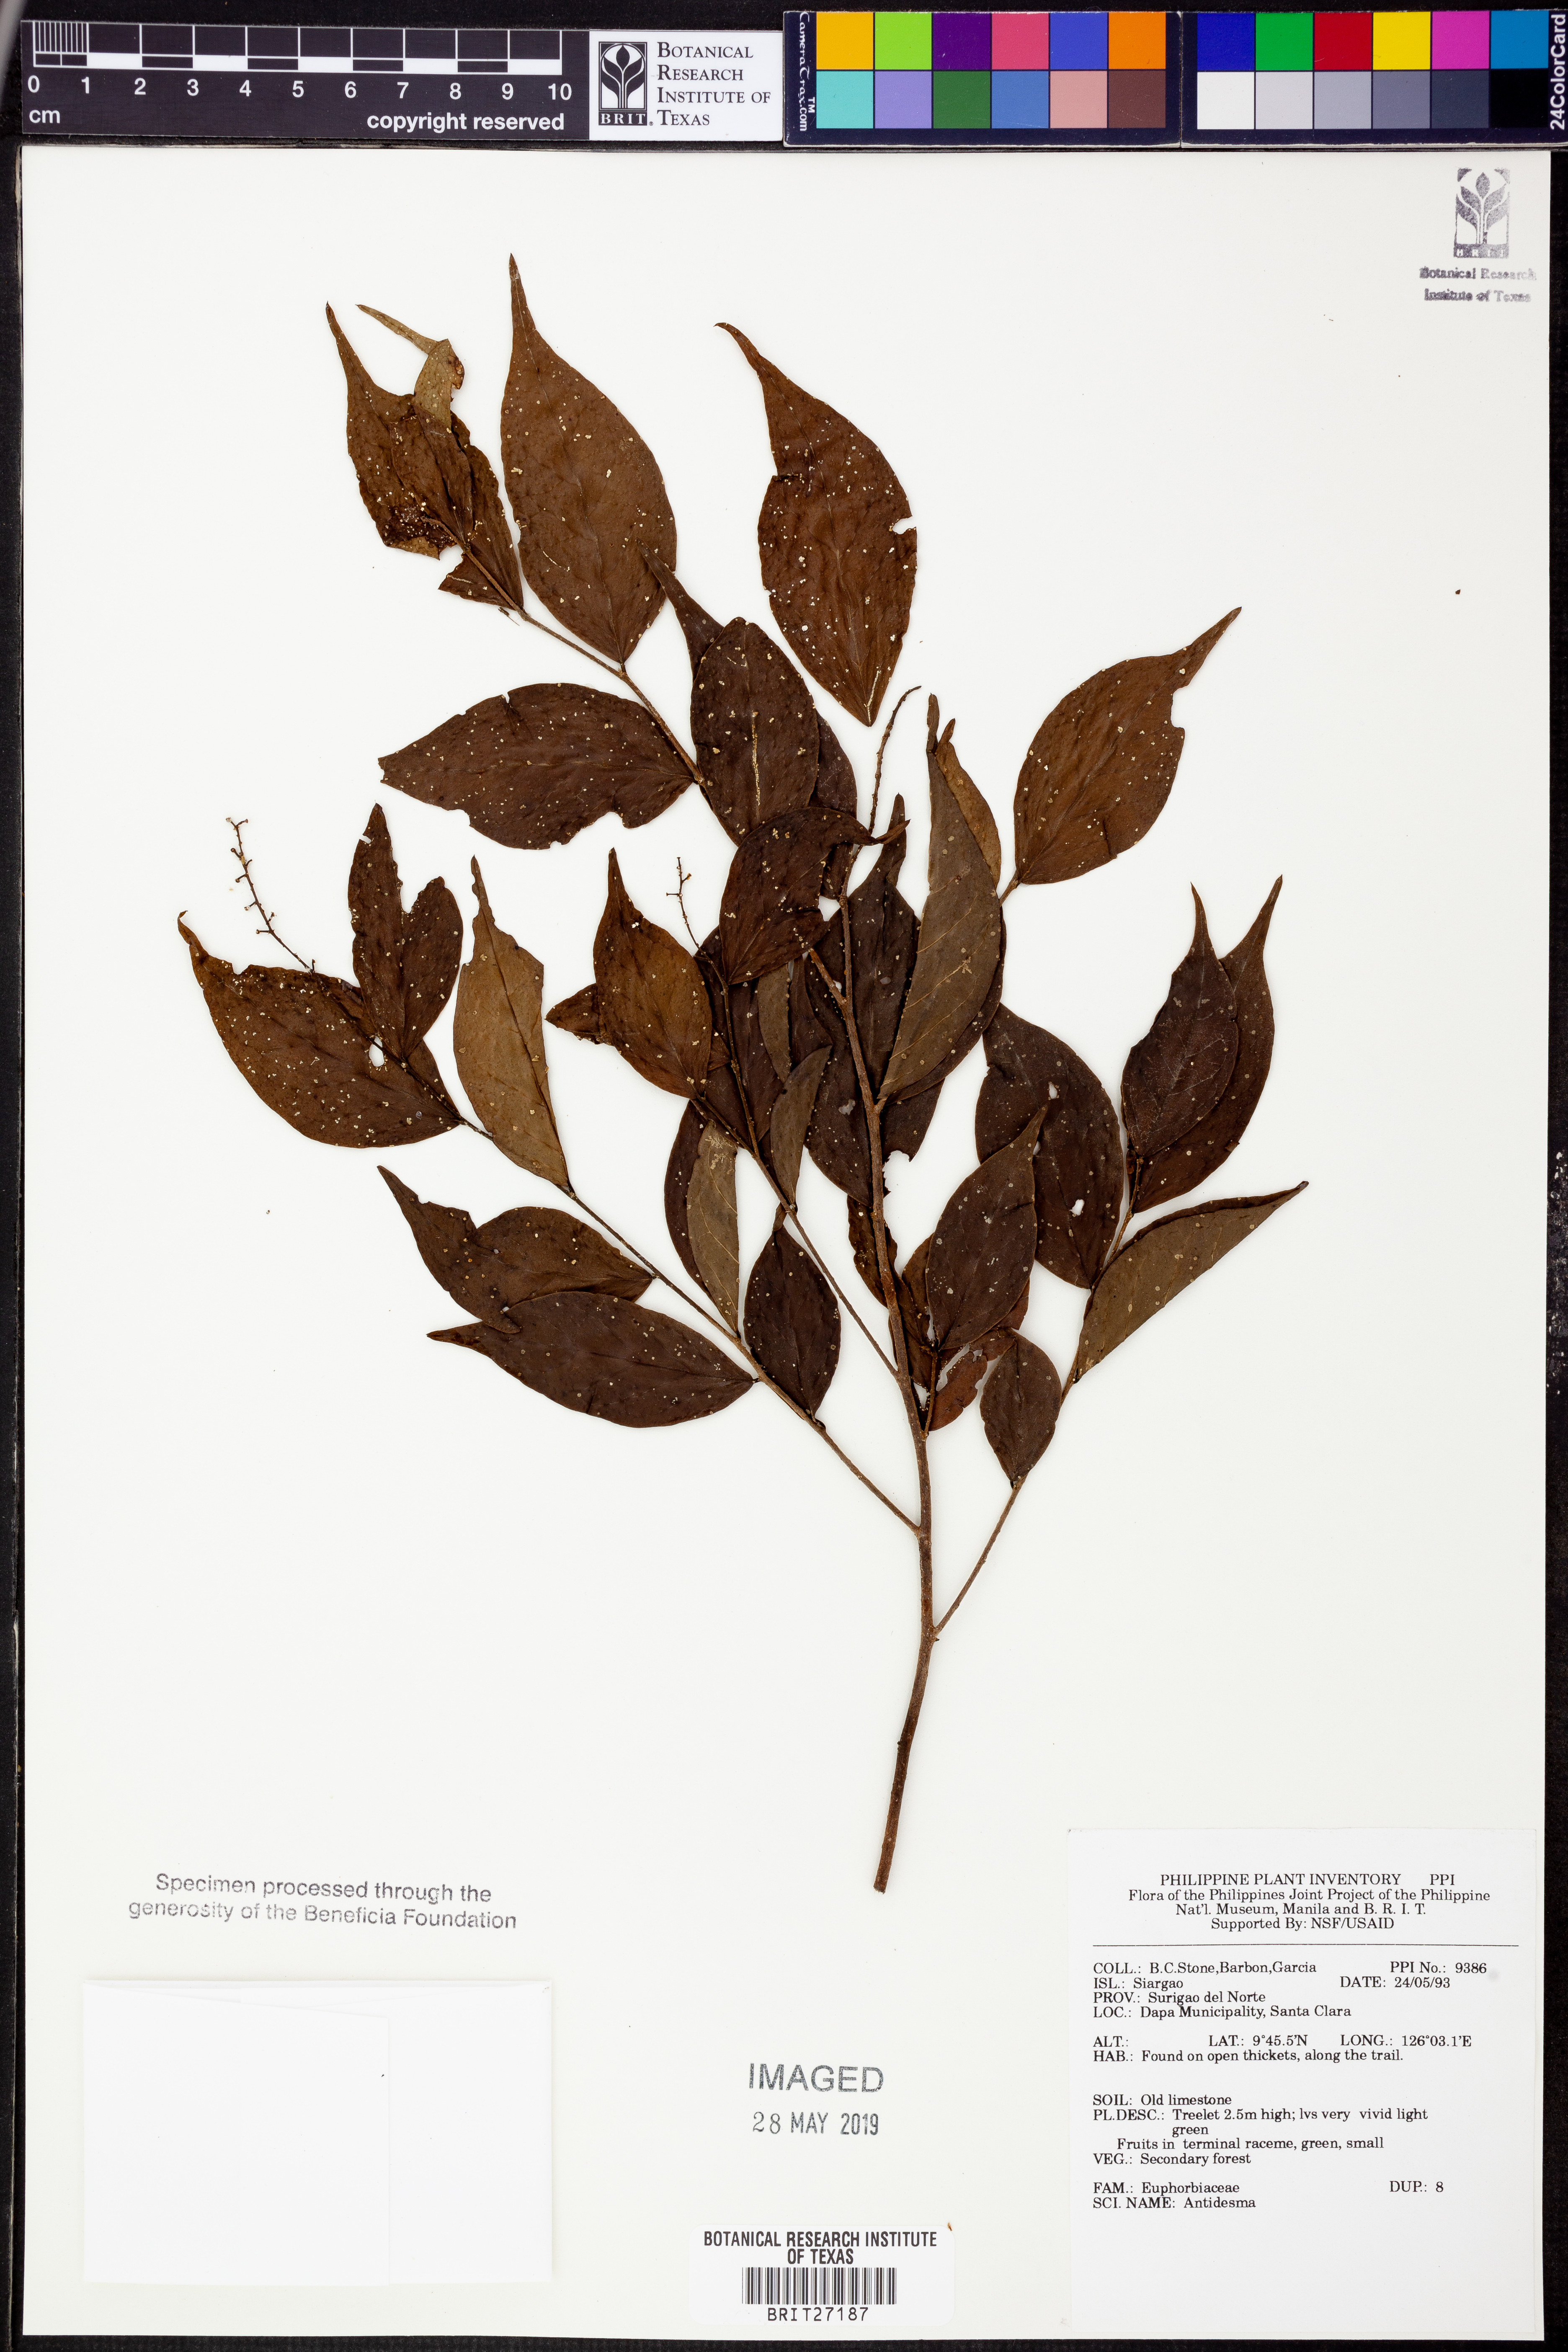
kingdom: Plantae
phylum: Tracheophyta
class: Magnoliopsida
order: Malpighiales
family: Phyllanthaceae
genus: Antidesma
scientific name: Antidesma
